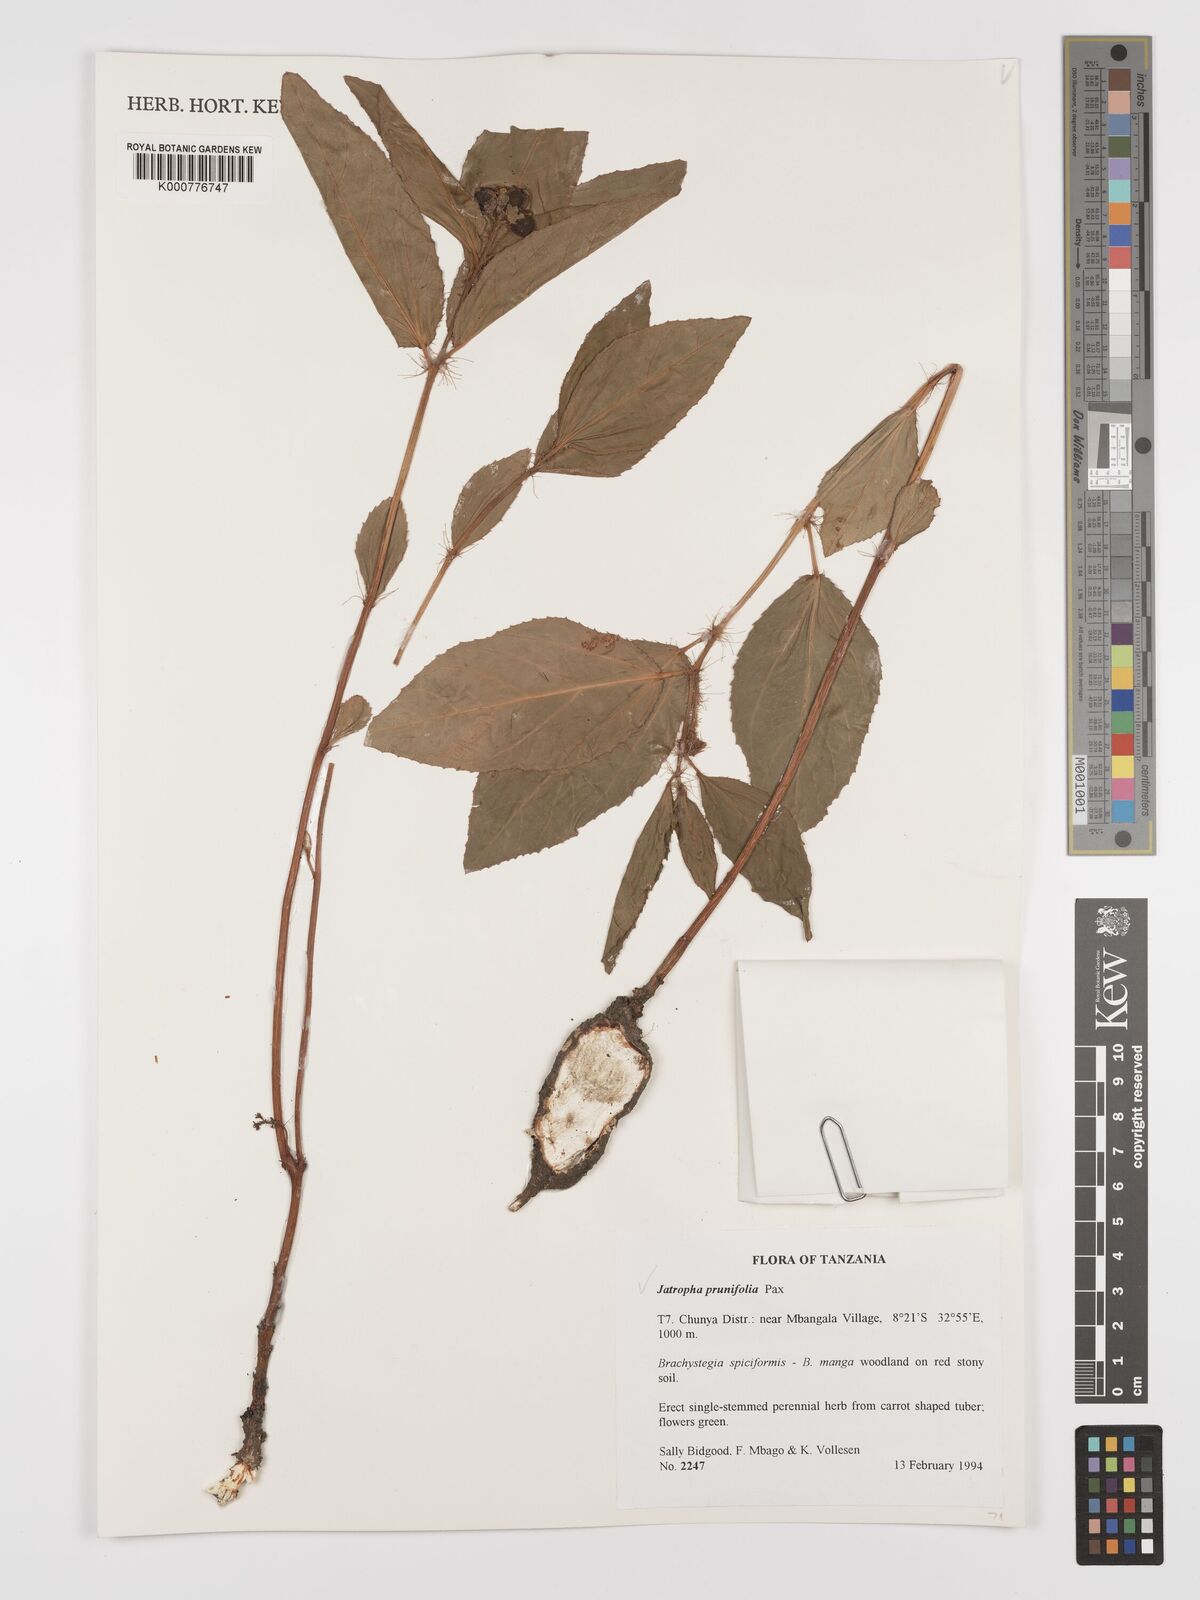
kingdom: Plantae
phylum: Tracheophyta
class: Magnoliopsida
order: Malpighiales
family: Euphorbiaceae
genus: Jatropha
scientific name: Jatropha
